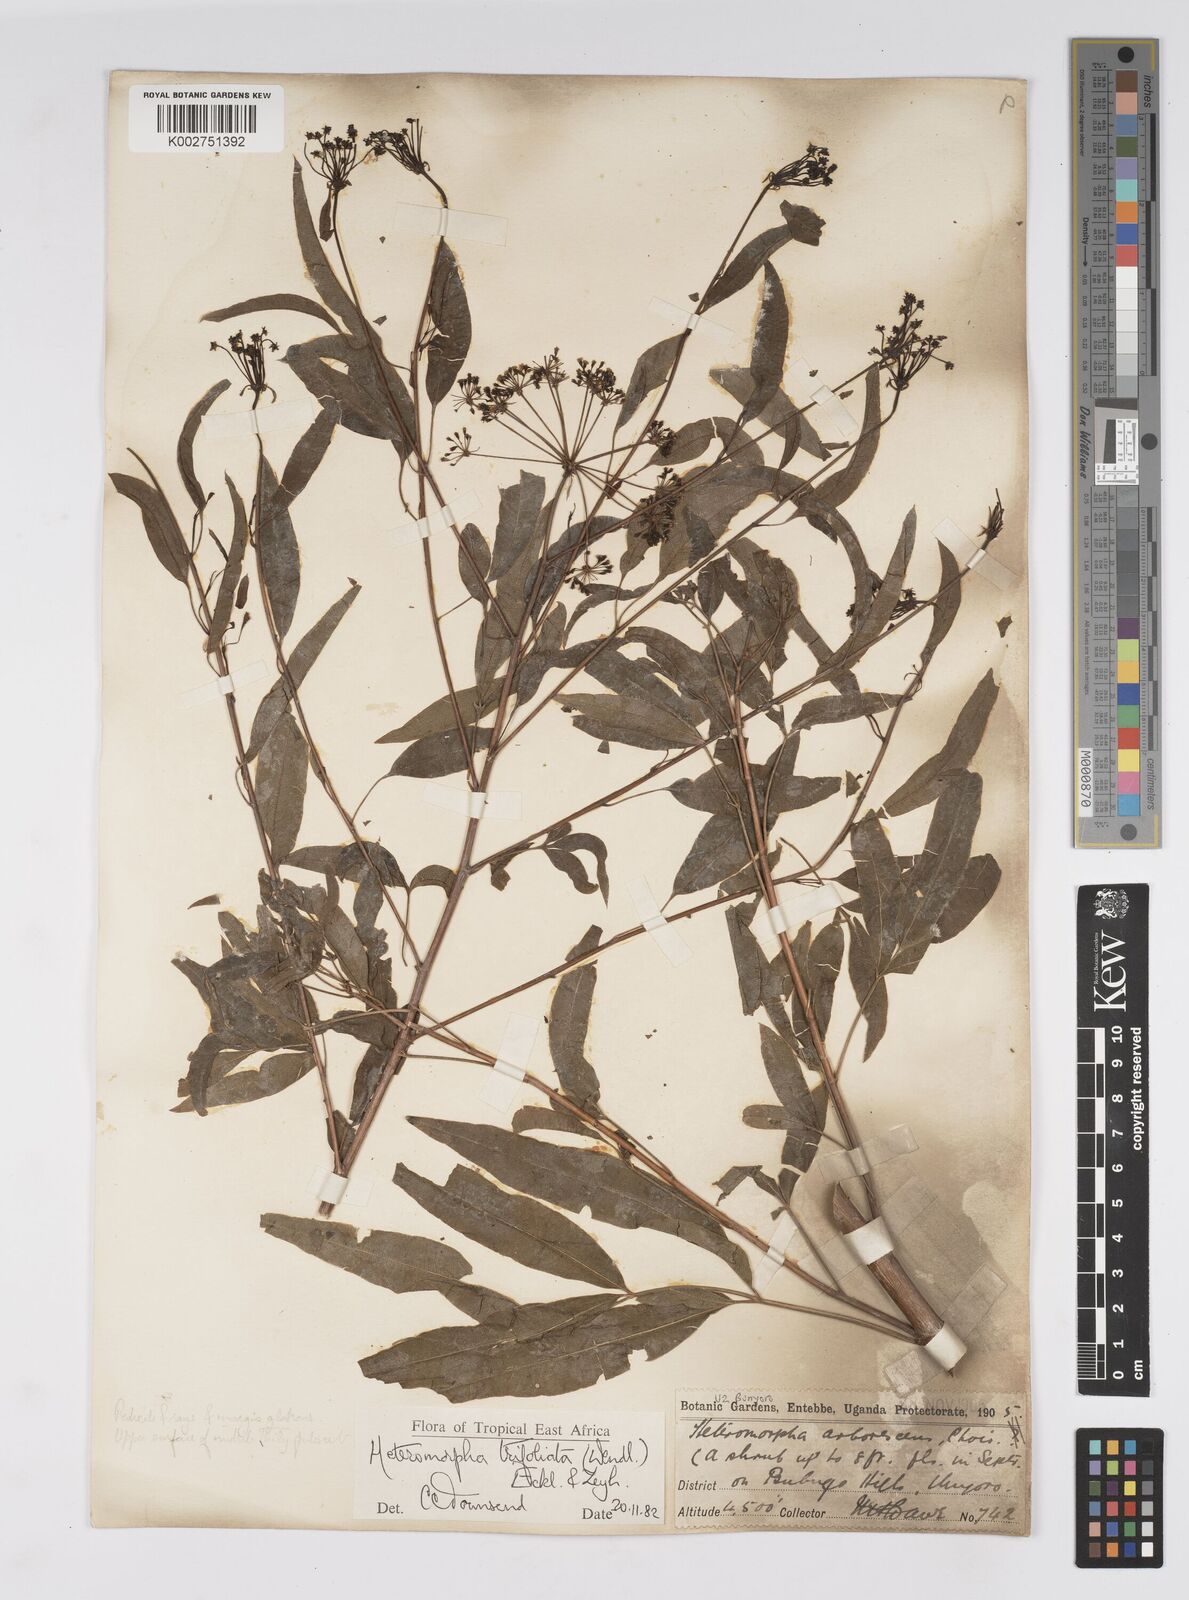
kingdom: Plantae
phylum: Tracheophyta
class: Magnoliopsida
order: Apiales
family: Apiaceae
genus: Heteromorpha
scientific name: Heteromorpha arborescens
